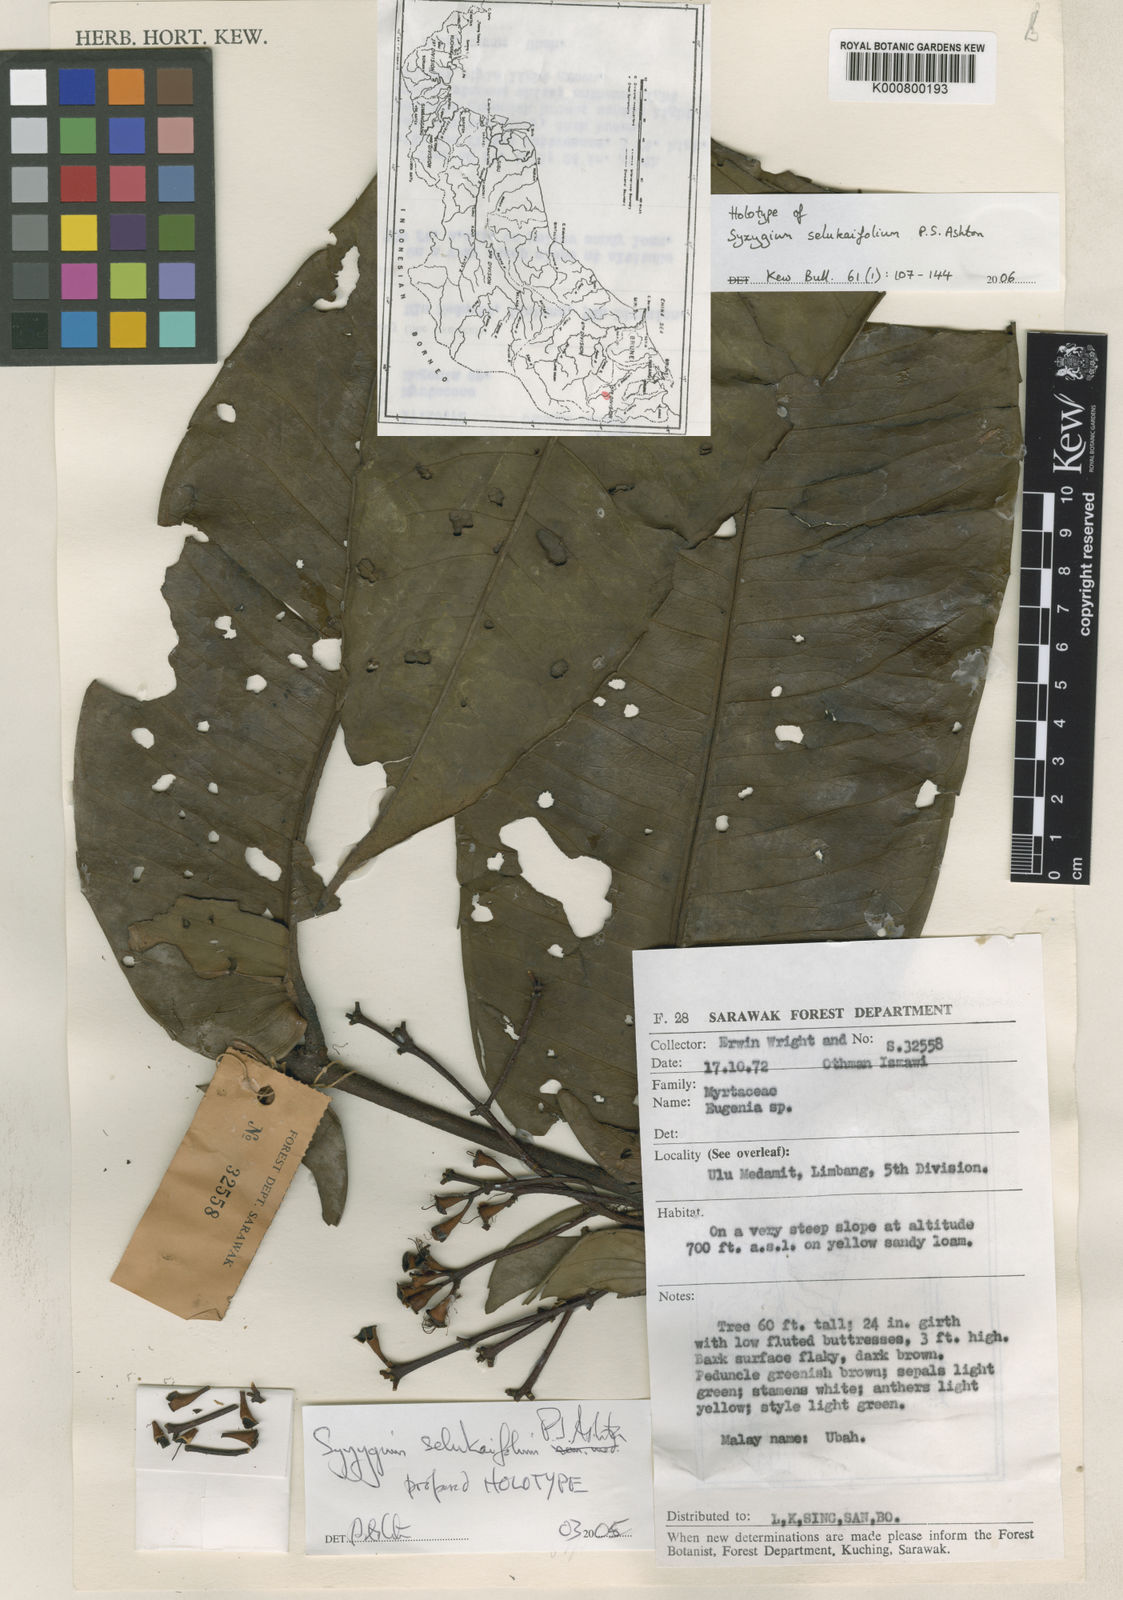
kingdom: Plantae
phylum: Tracheophyta
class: Magnoliopsida
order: Myrtales
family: Myrtaceae
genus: Syzygium
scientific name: Syzygium selukaifolium
